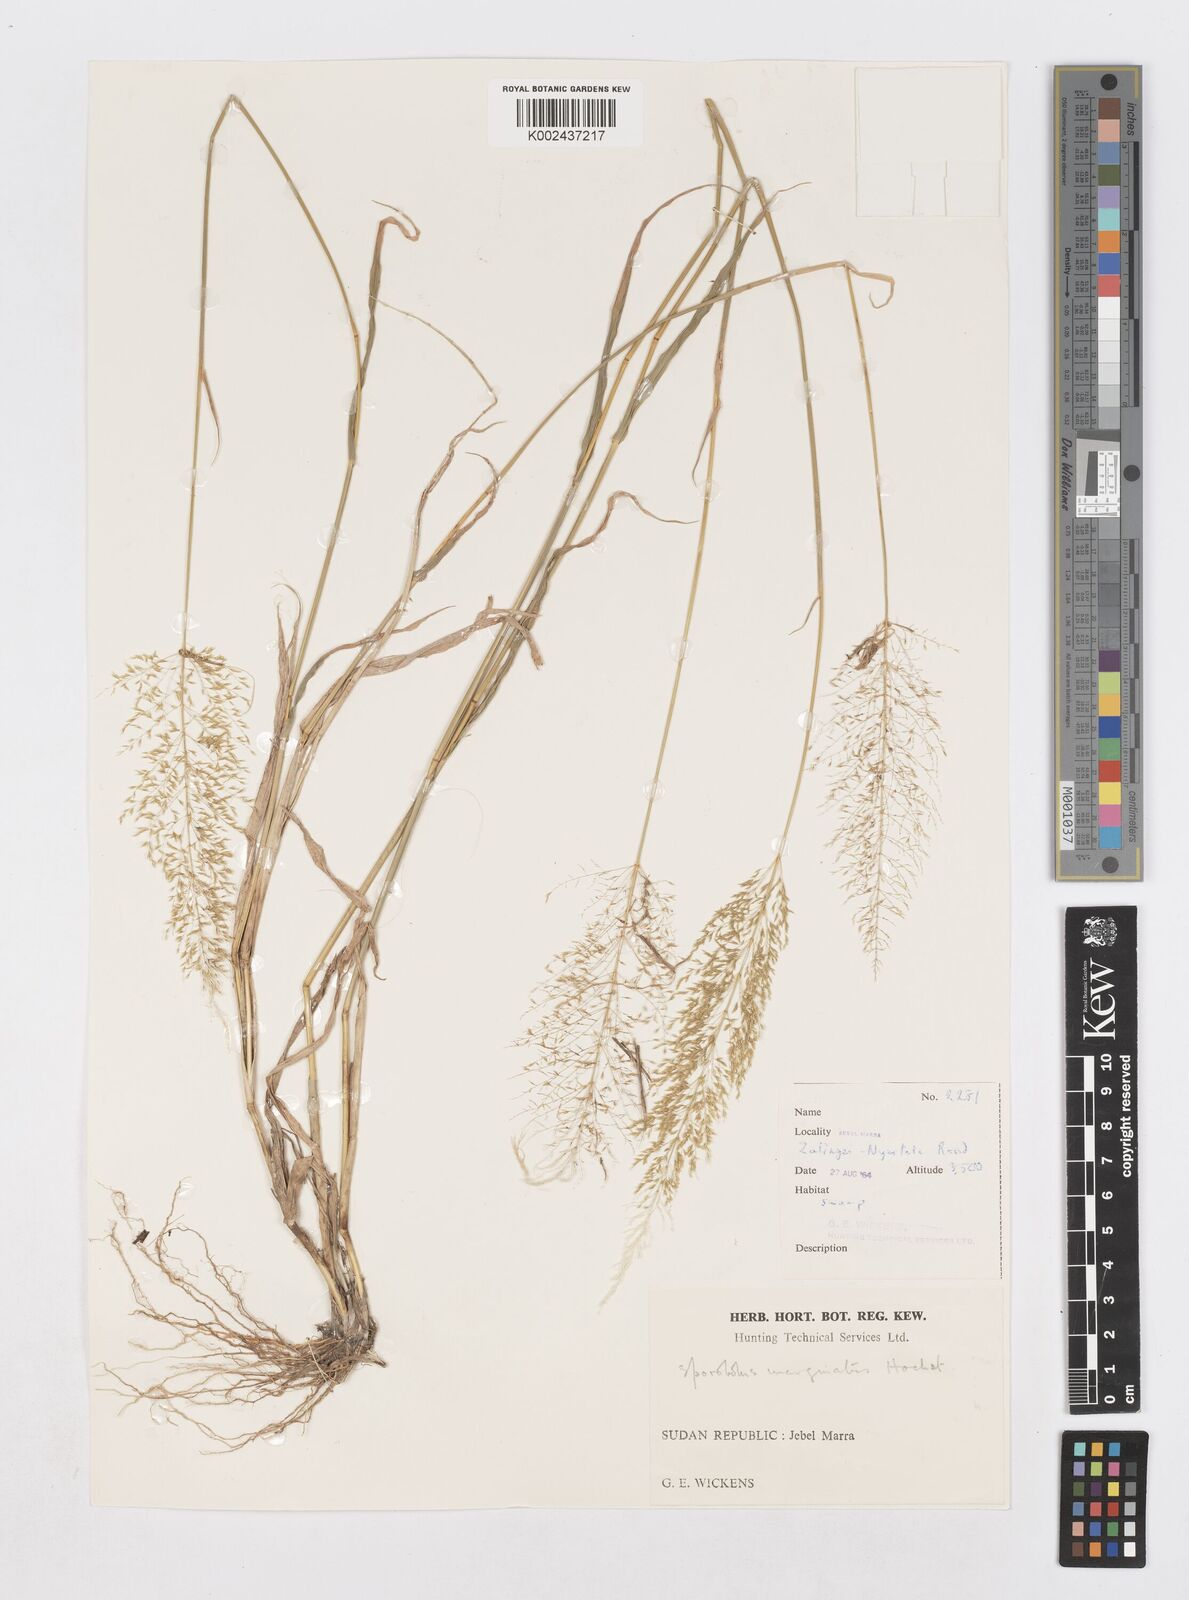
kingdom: Plantae
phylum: Tracheophyta
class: Liliopsida
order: Poales
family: Poaceae
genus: Sporobolus
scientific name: Sporobolus ioclados
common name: Pan dropseed
